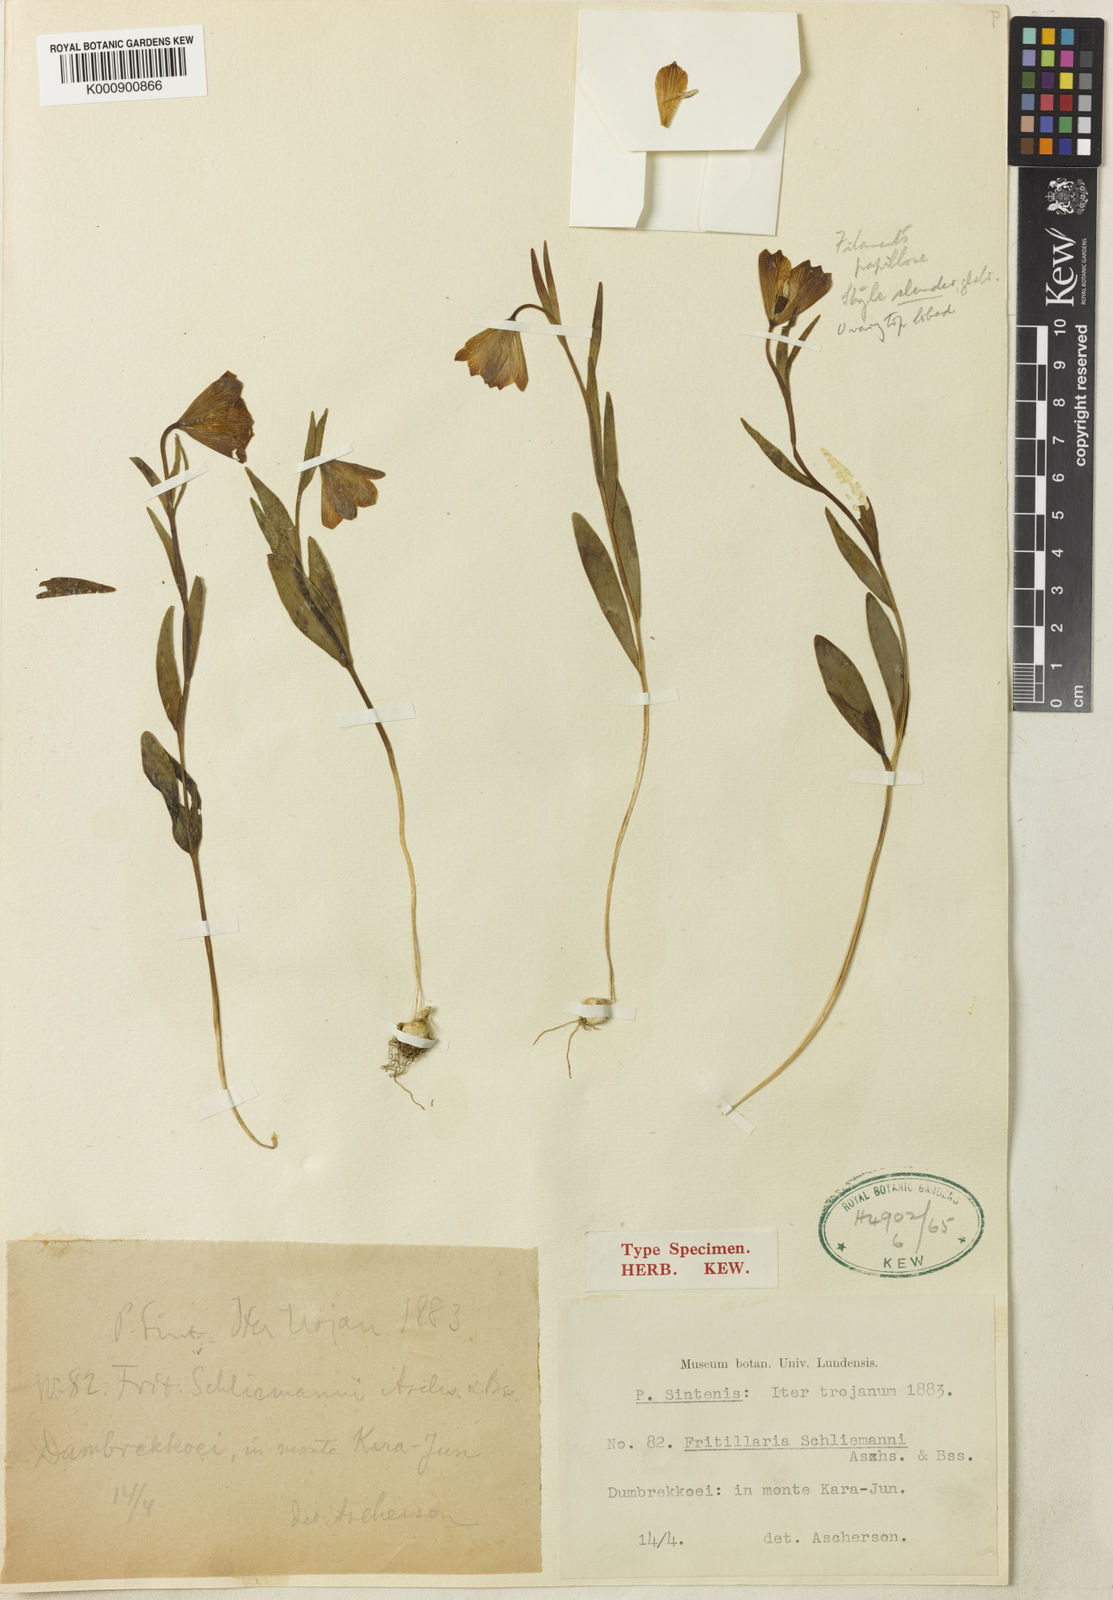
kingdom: Plantae
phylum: Tracheophyta
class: Liliopsida
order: Liliales
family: Liliaceae
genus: Fritillaria
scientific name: Fritillaria
